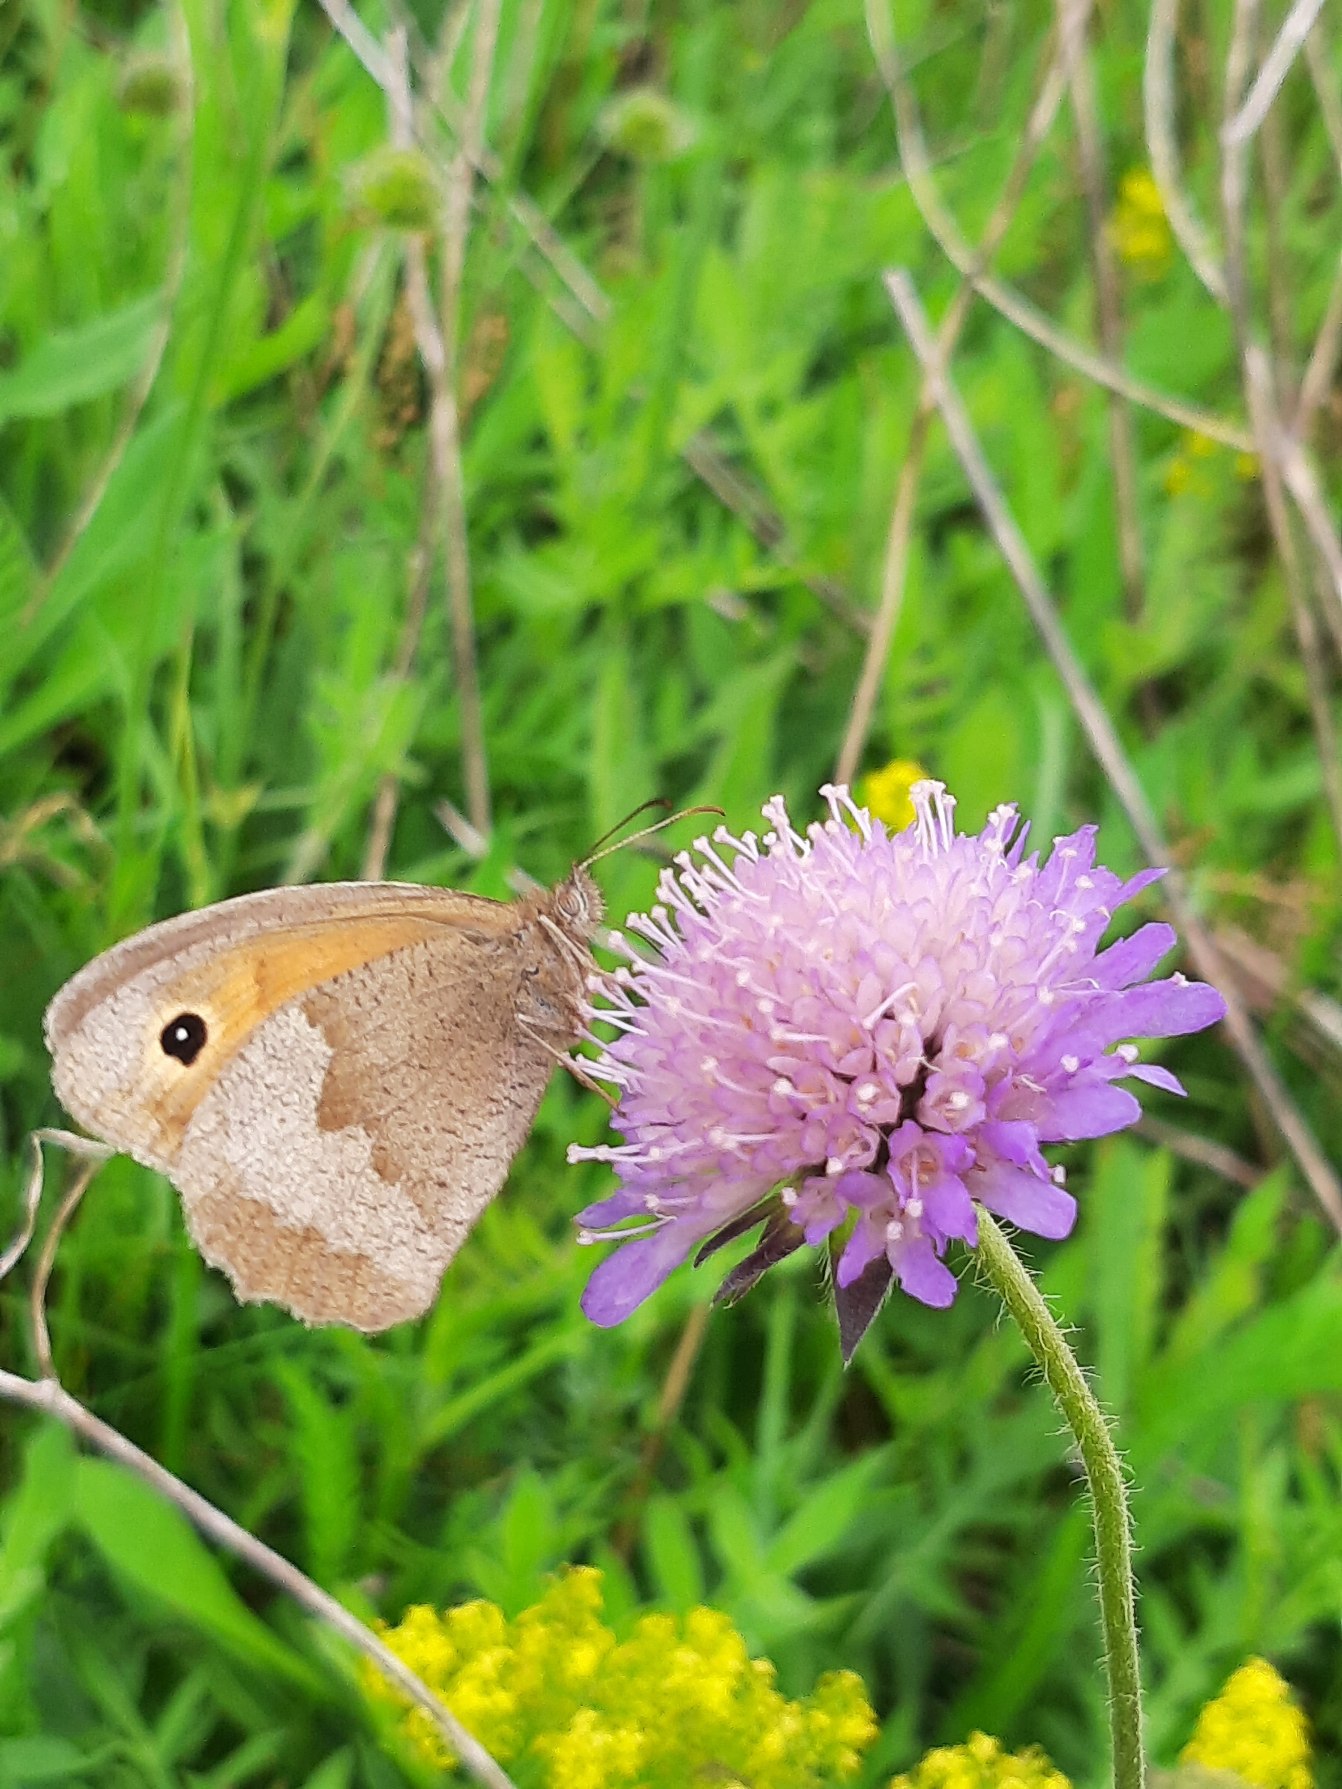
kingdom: Animalia
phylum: Arthropoda
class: Insecta
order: Lepidoptera
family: Nymphalidae
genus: Maniola
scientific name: Maniola jurtina
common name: Græsrandøje
